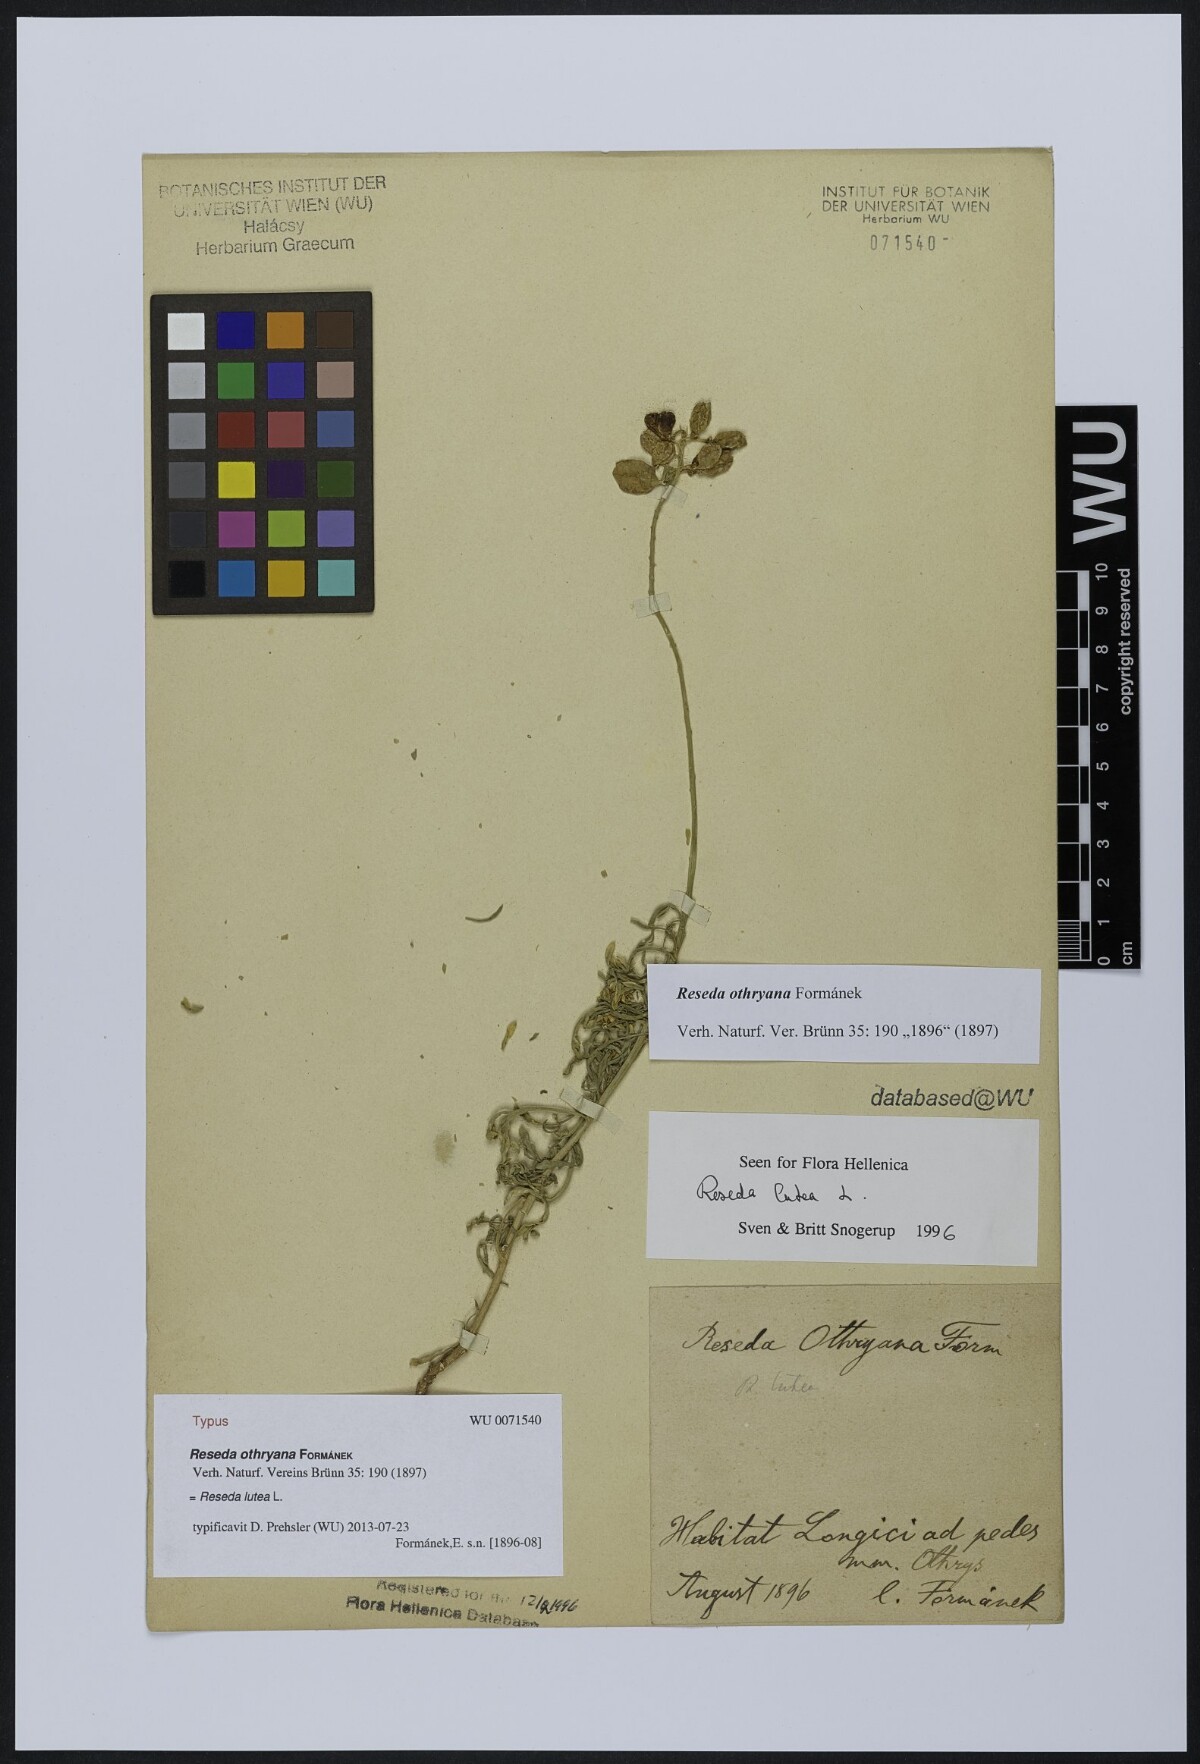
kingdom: Plantae
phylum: Tracheophyta
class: Magnoliopsida
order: Brassicales
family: Resedaceae
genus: Reseda
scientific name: Reseda lutea
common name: Wild mignonette
